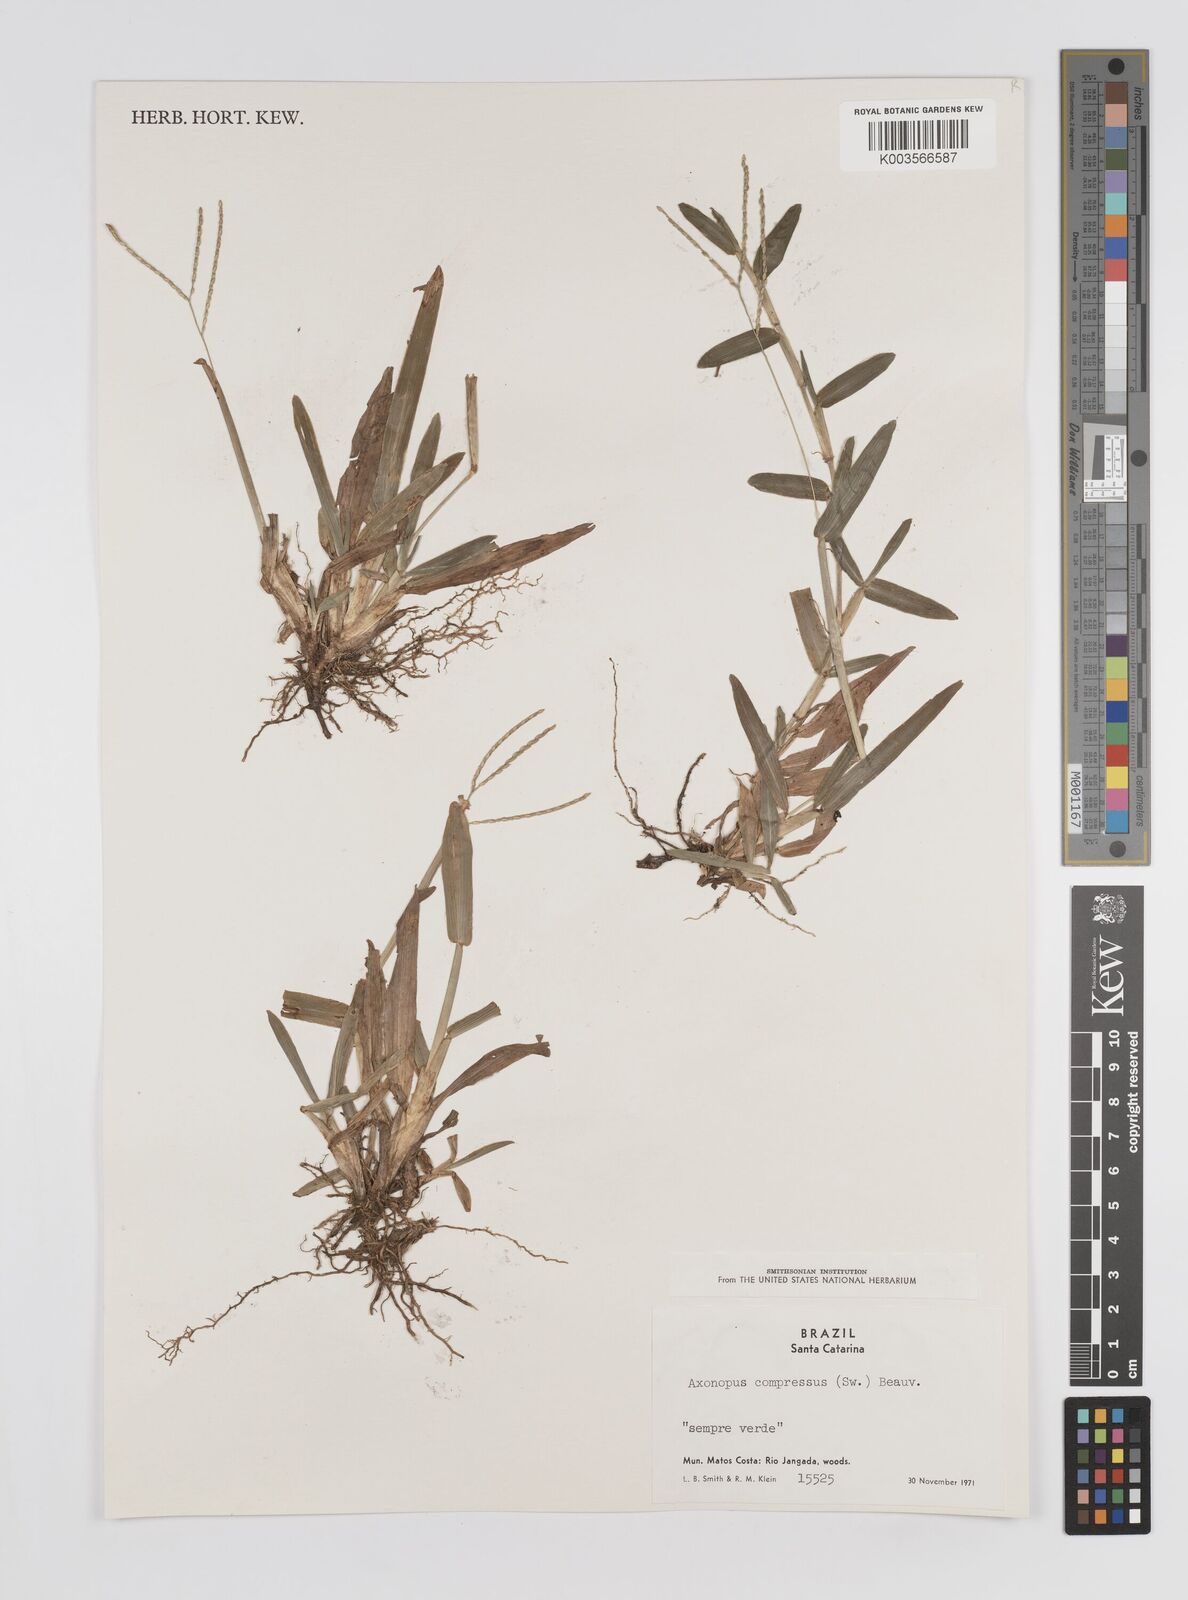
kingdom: Plantae
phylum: Tracheophyta
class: Liliopsida
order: Poales
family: Poaceae
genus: Axonopus
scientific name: Axonopus compressus
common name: American carpet grass
